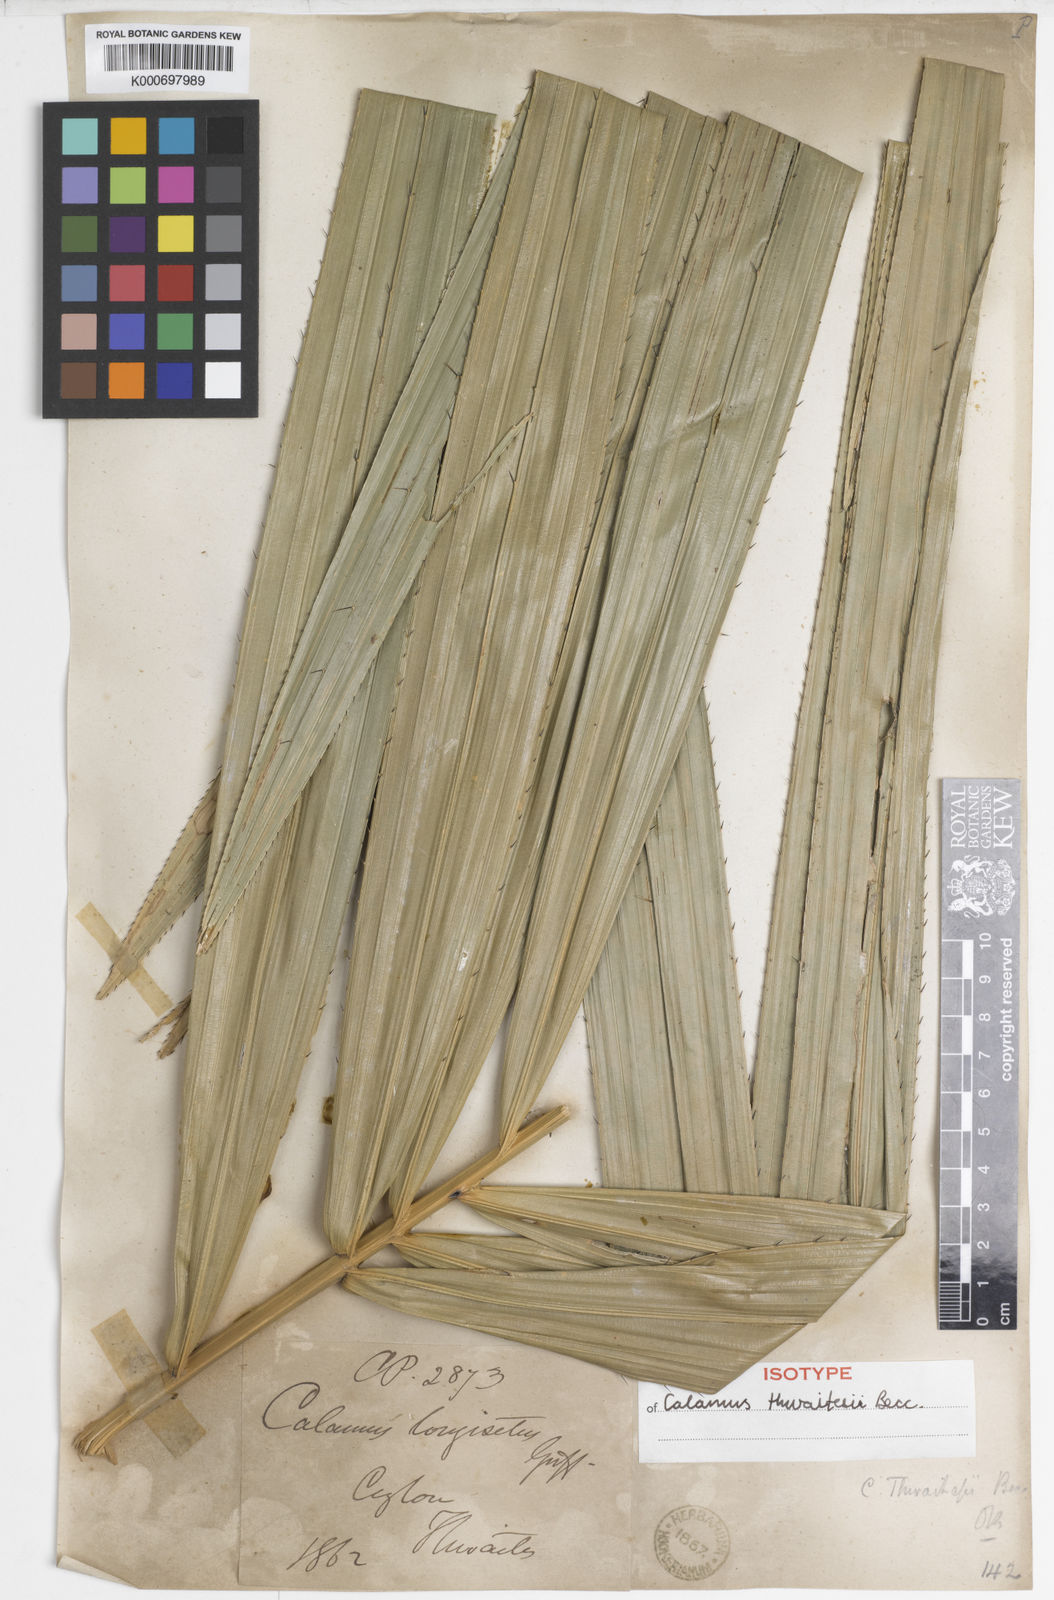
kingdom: Plantae
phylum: Tracheophyta
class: Liliopsida
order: Arecales
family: Arecaceae
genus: Calamus
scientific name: Calamus thwaitesii
